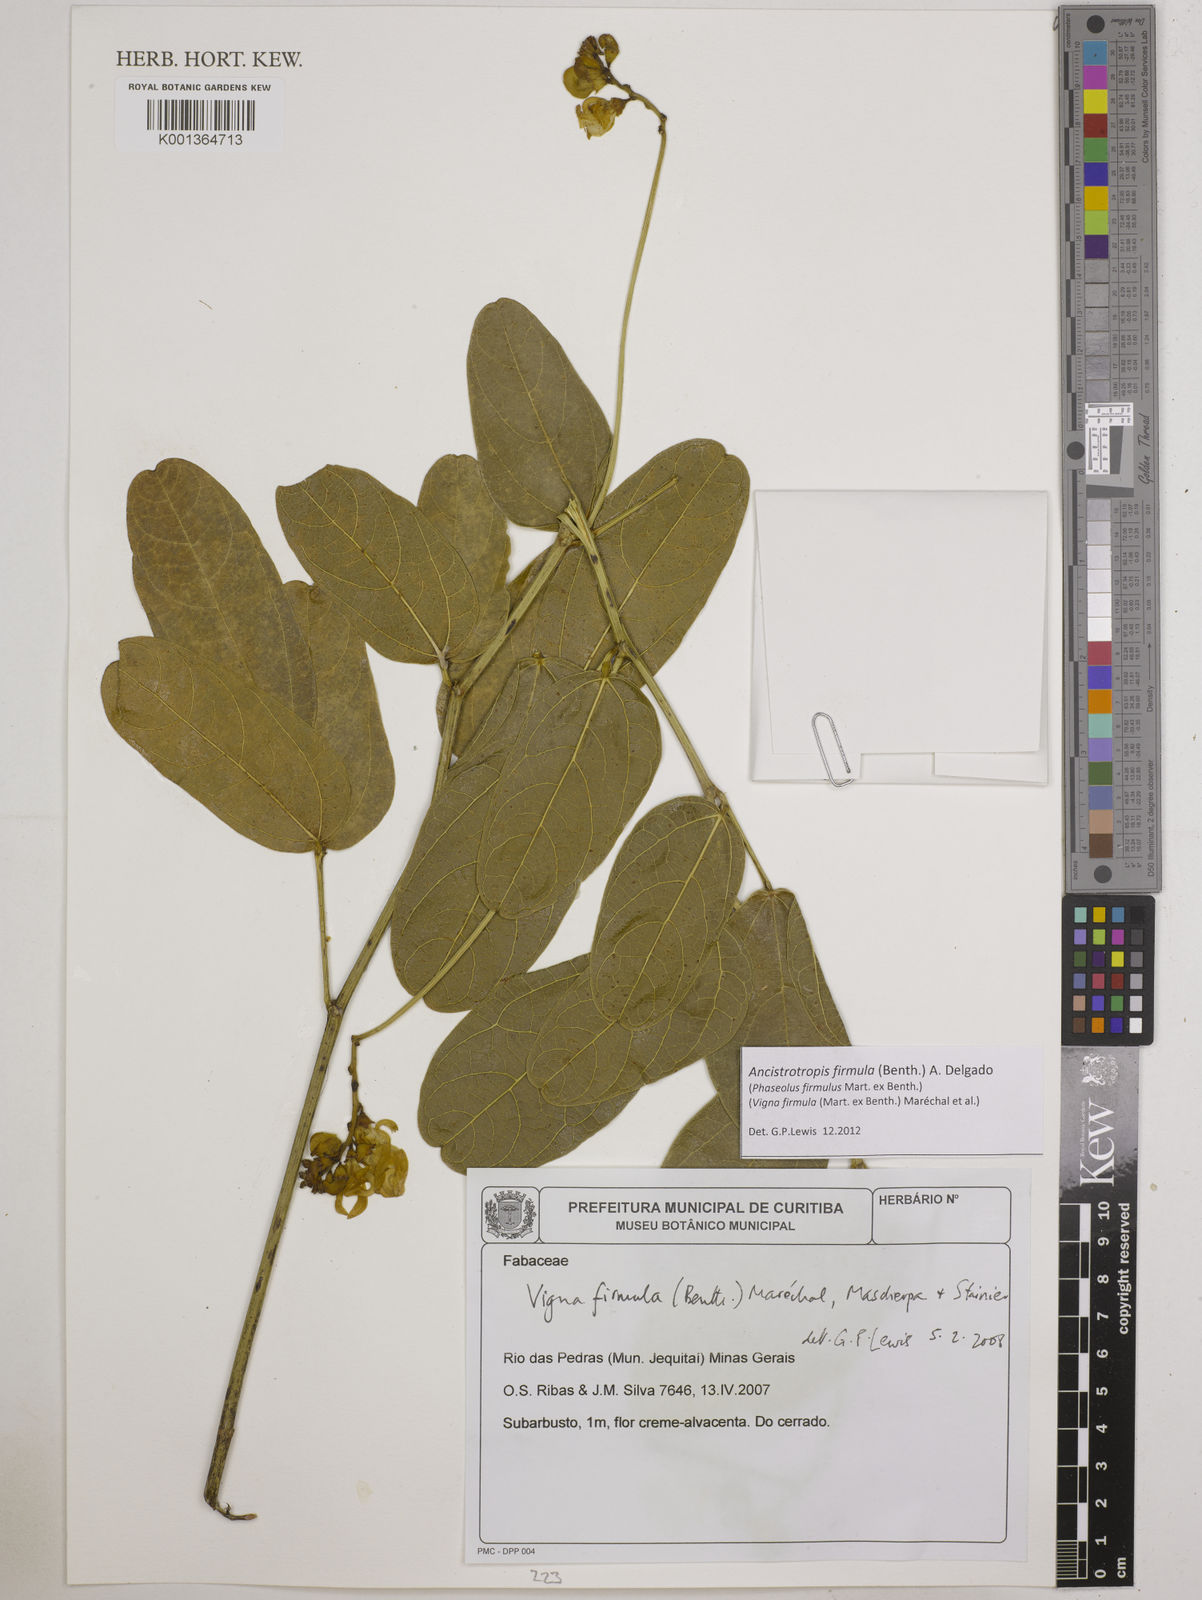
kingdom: Plantae
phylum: Tracheophyta
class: Magnoliopsida
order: Fabales
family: Fabaceae
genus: Ancistrotropis
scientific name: Ancistrotropis firmula
